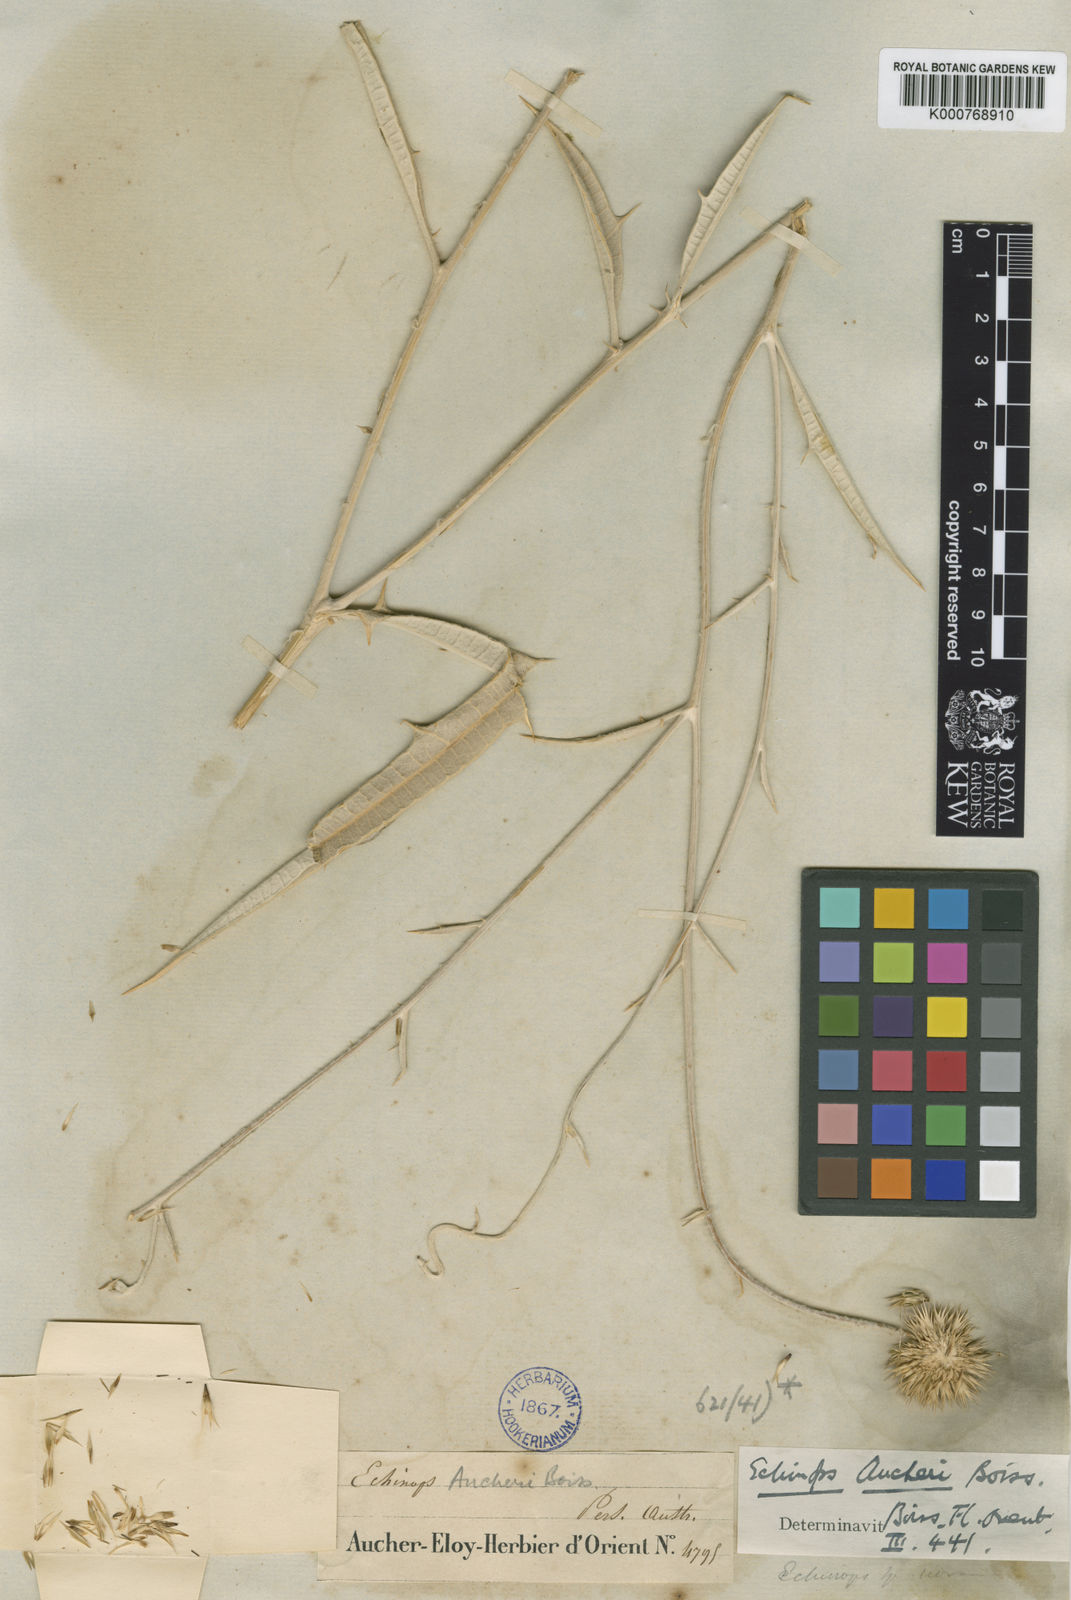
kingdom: Plantae
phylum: Tracheophyta
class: Magnoliopsida
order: Asterales
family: Asteraceae
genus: Echinops
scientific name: Echinops aucheri
